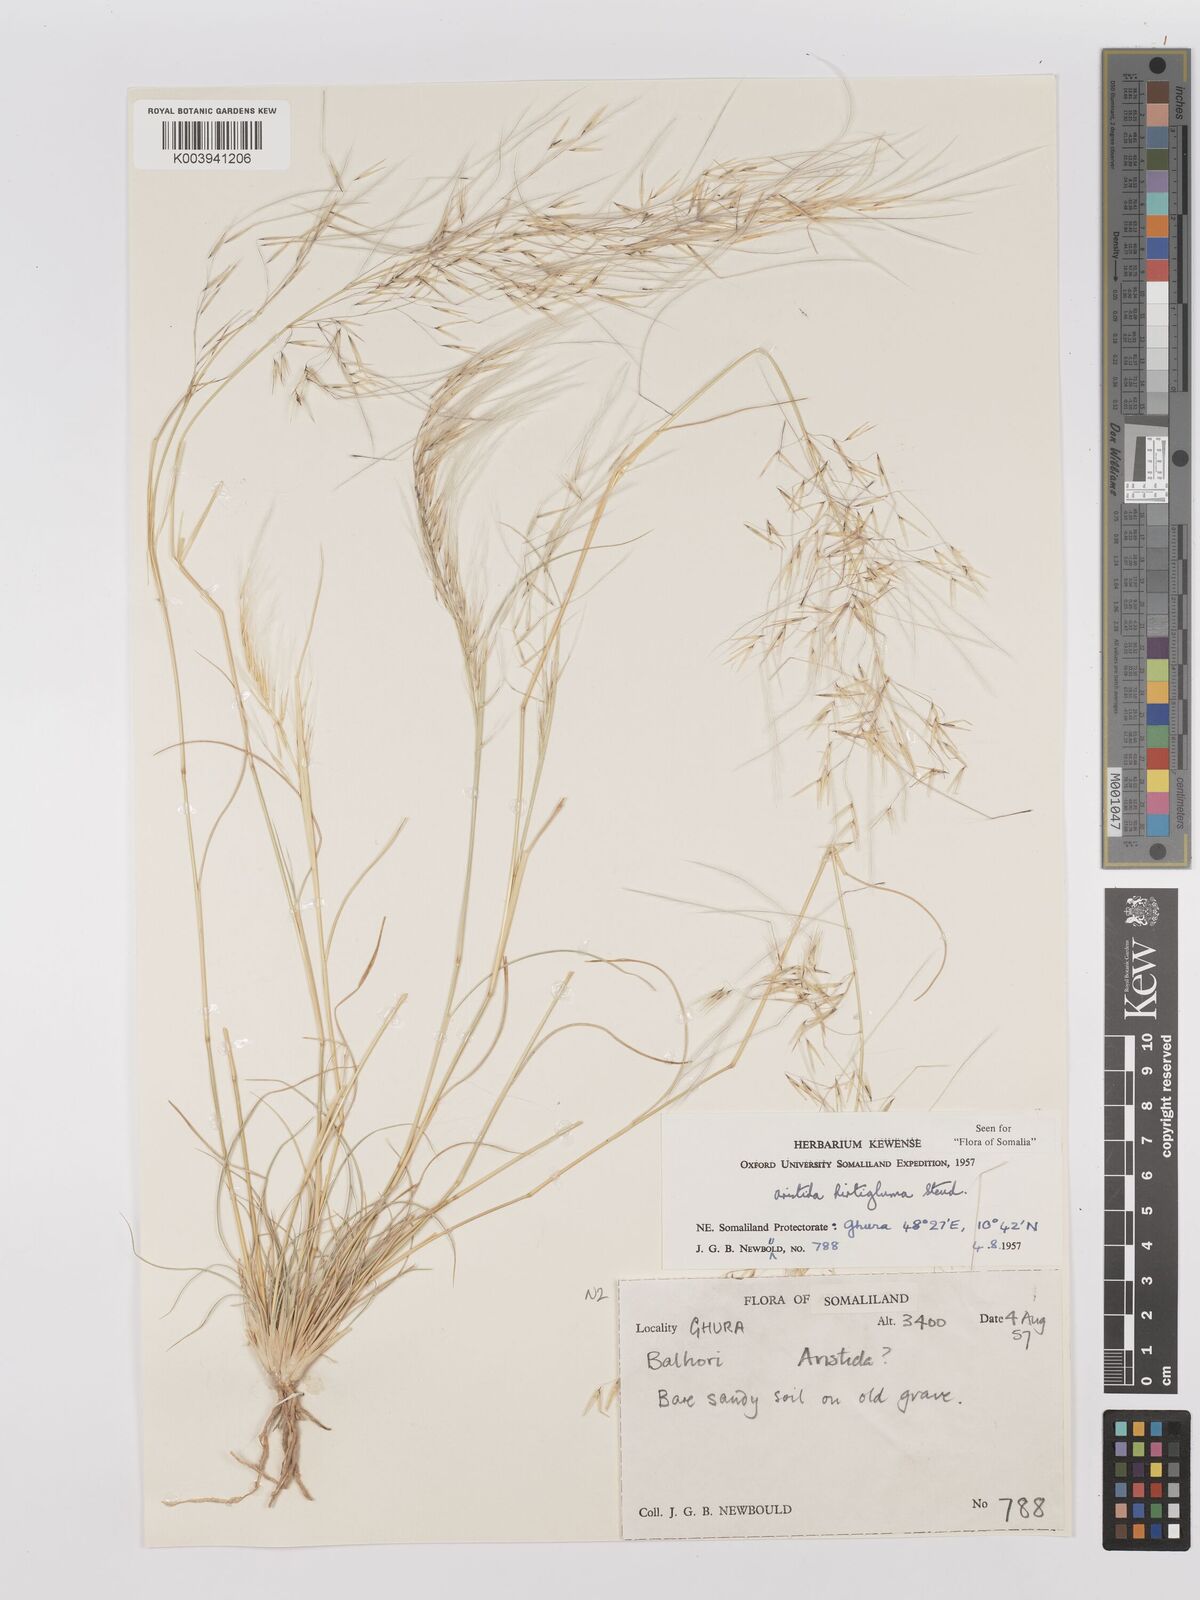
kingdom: Plantae
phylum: Tracheophyta
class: Liliopsida
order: Poales
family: Poaceae
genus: Stipagrostis
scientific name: Stipagrostis hirtigluma
